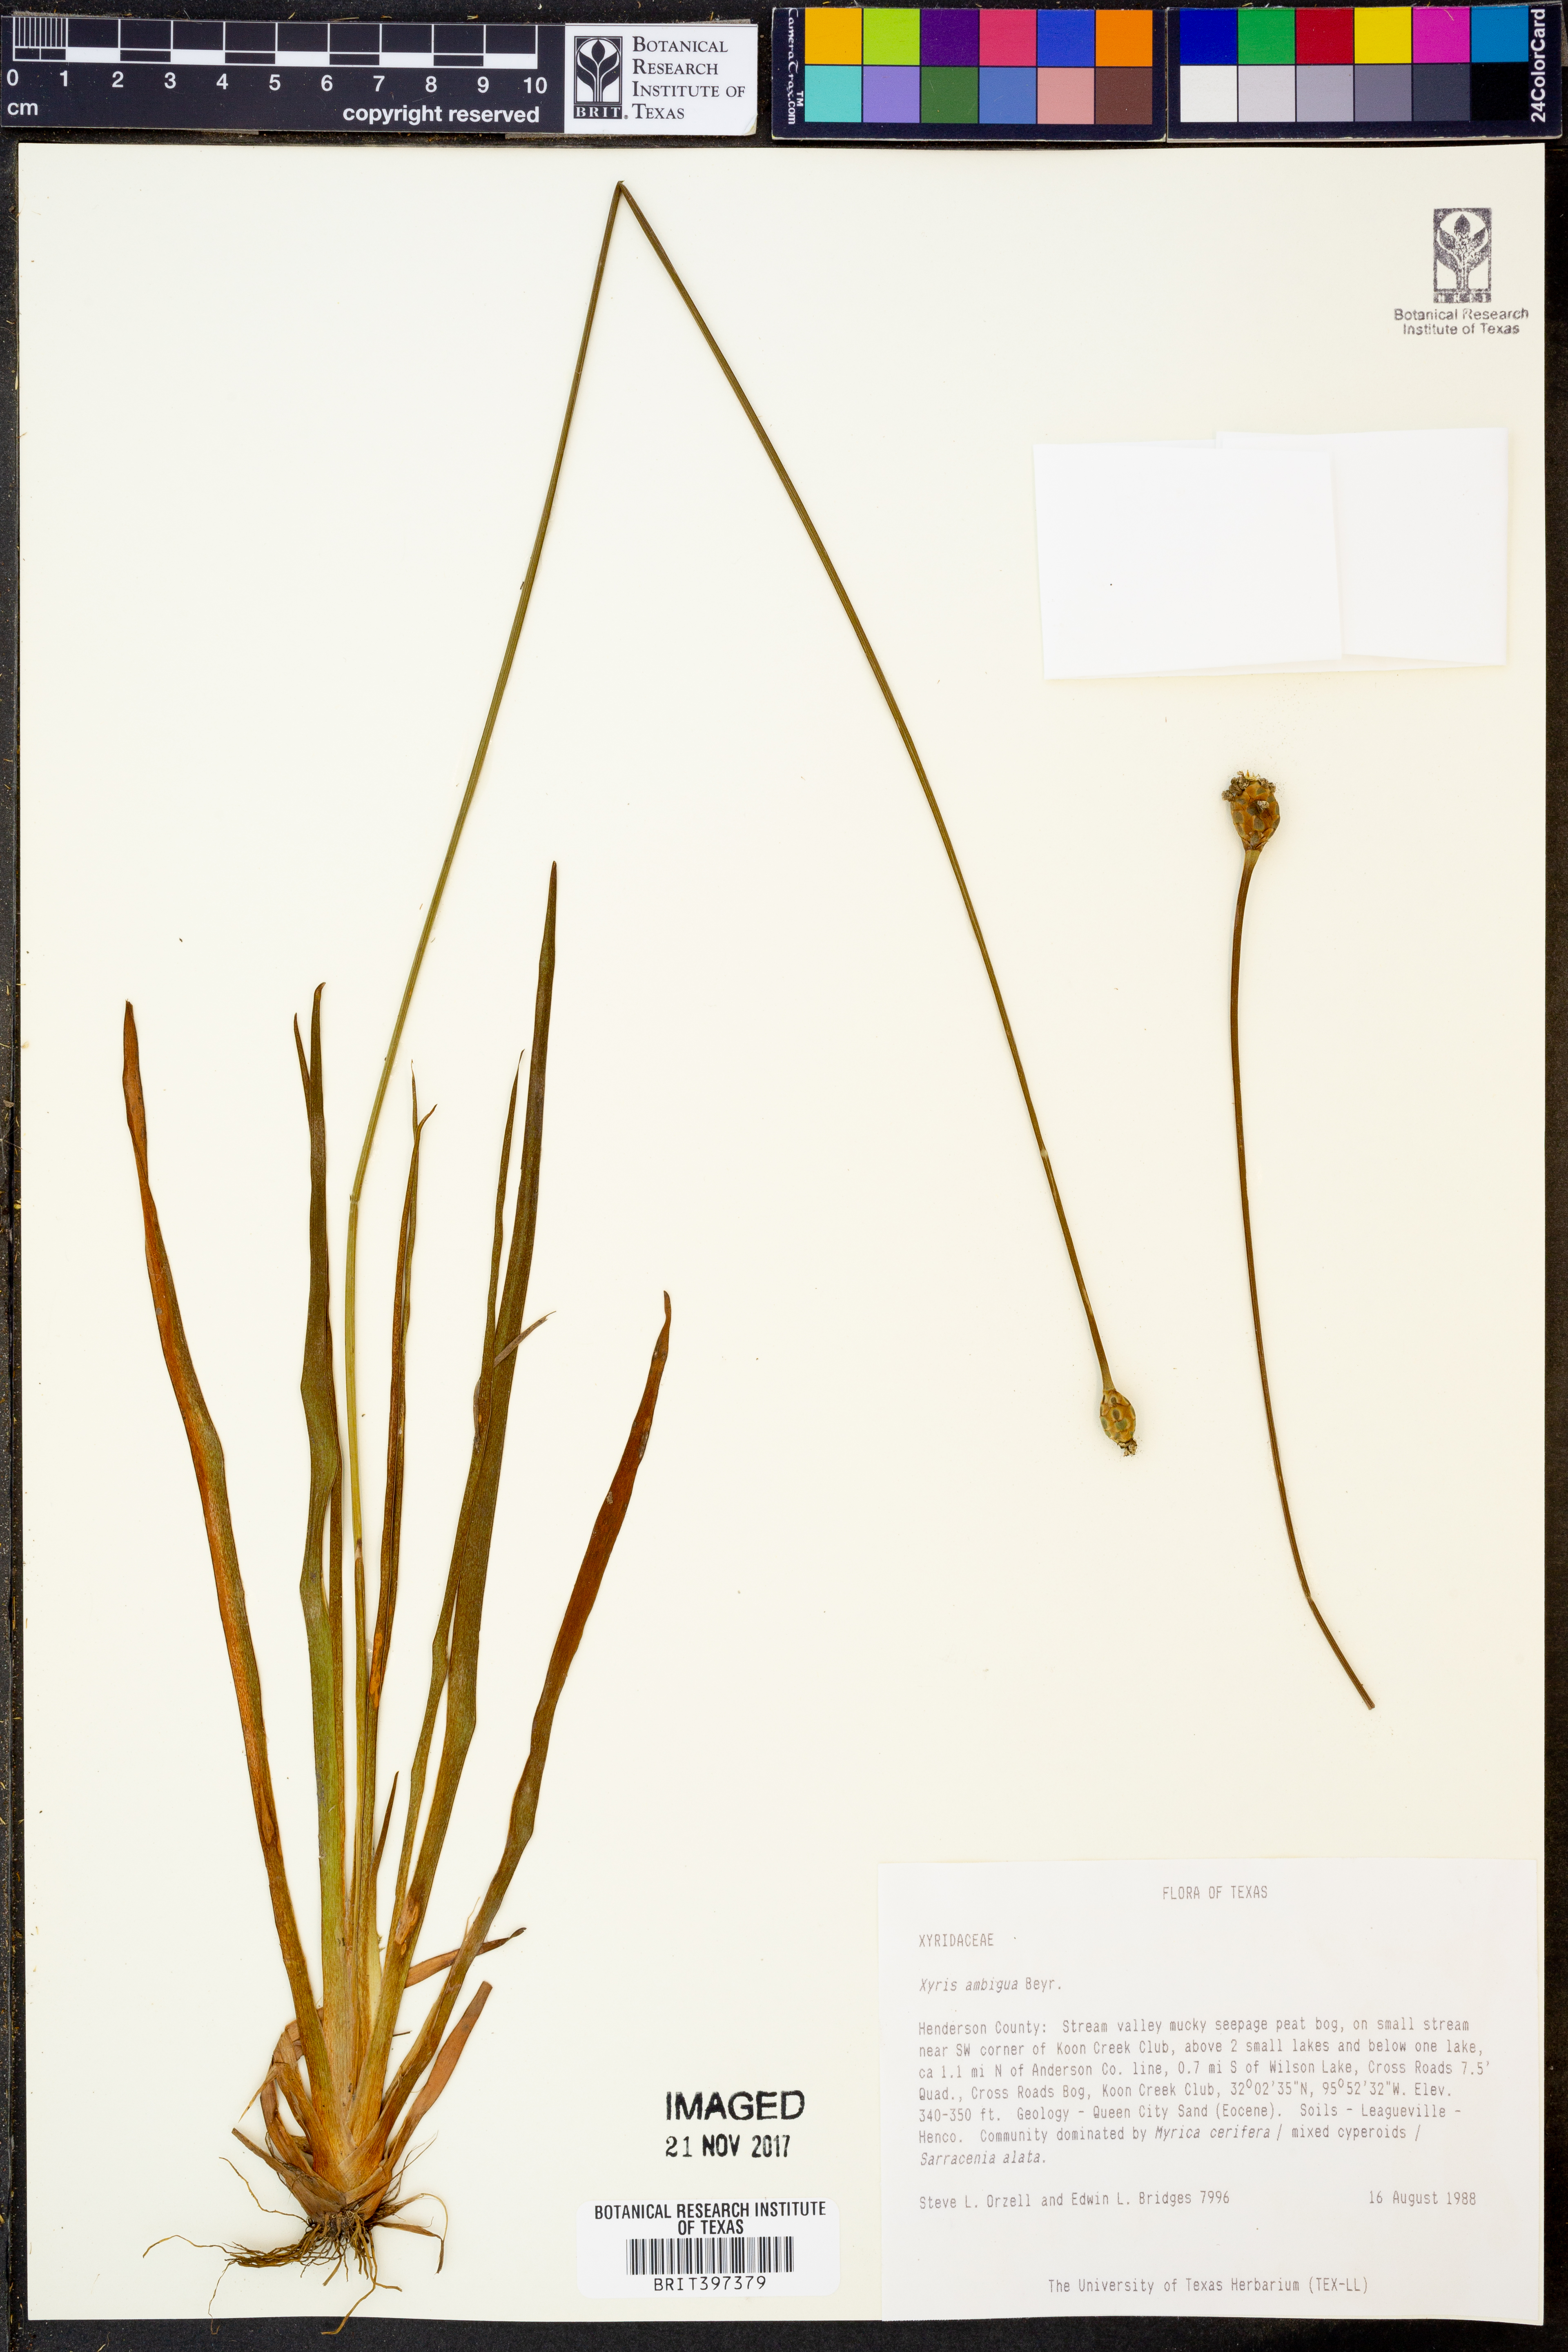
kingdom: Plantae
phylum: Tracheophyta
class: Liliopsida
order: Poales
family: Xyridaceae
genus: Xyris
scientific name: Xyris ambigua
